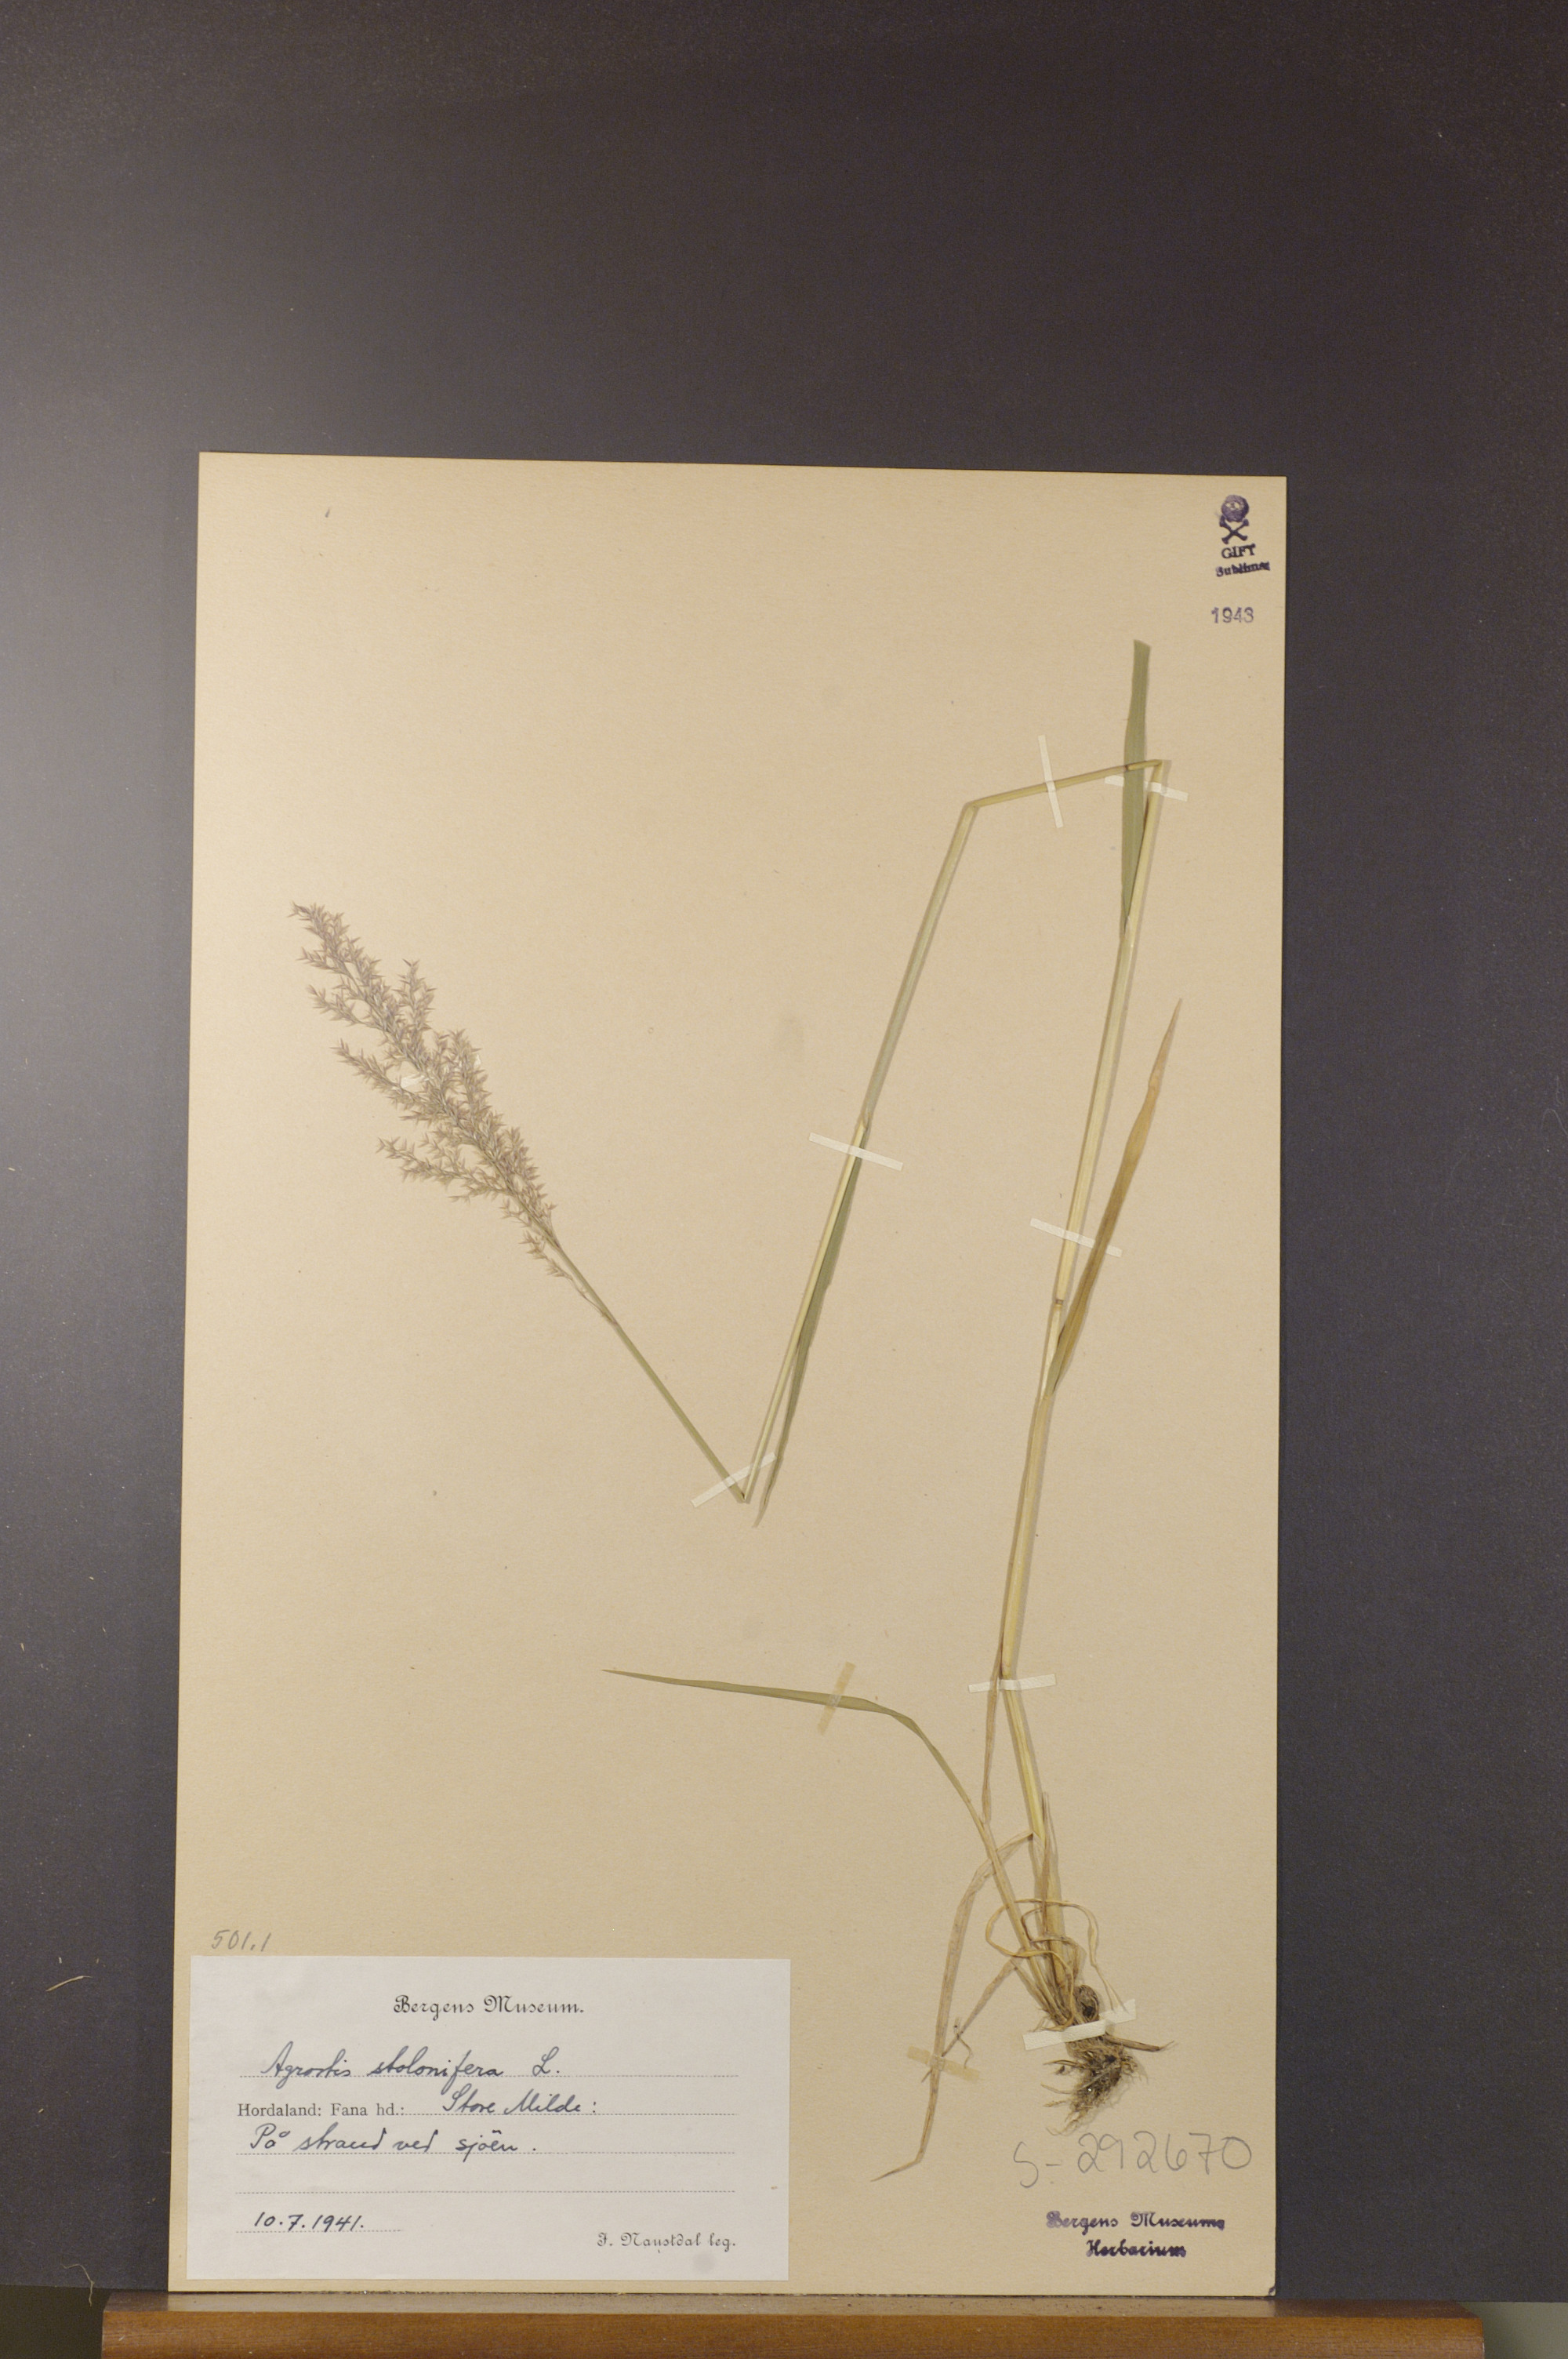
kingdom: Plantae
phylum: Tracheophyta
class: Liliopsida
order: Poales
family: Poaceae
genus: Agrostis
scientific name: Agrostis stolonifera
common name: Creeping bentgrass
